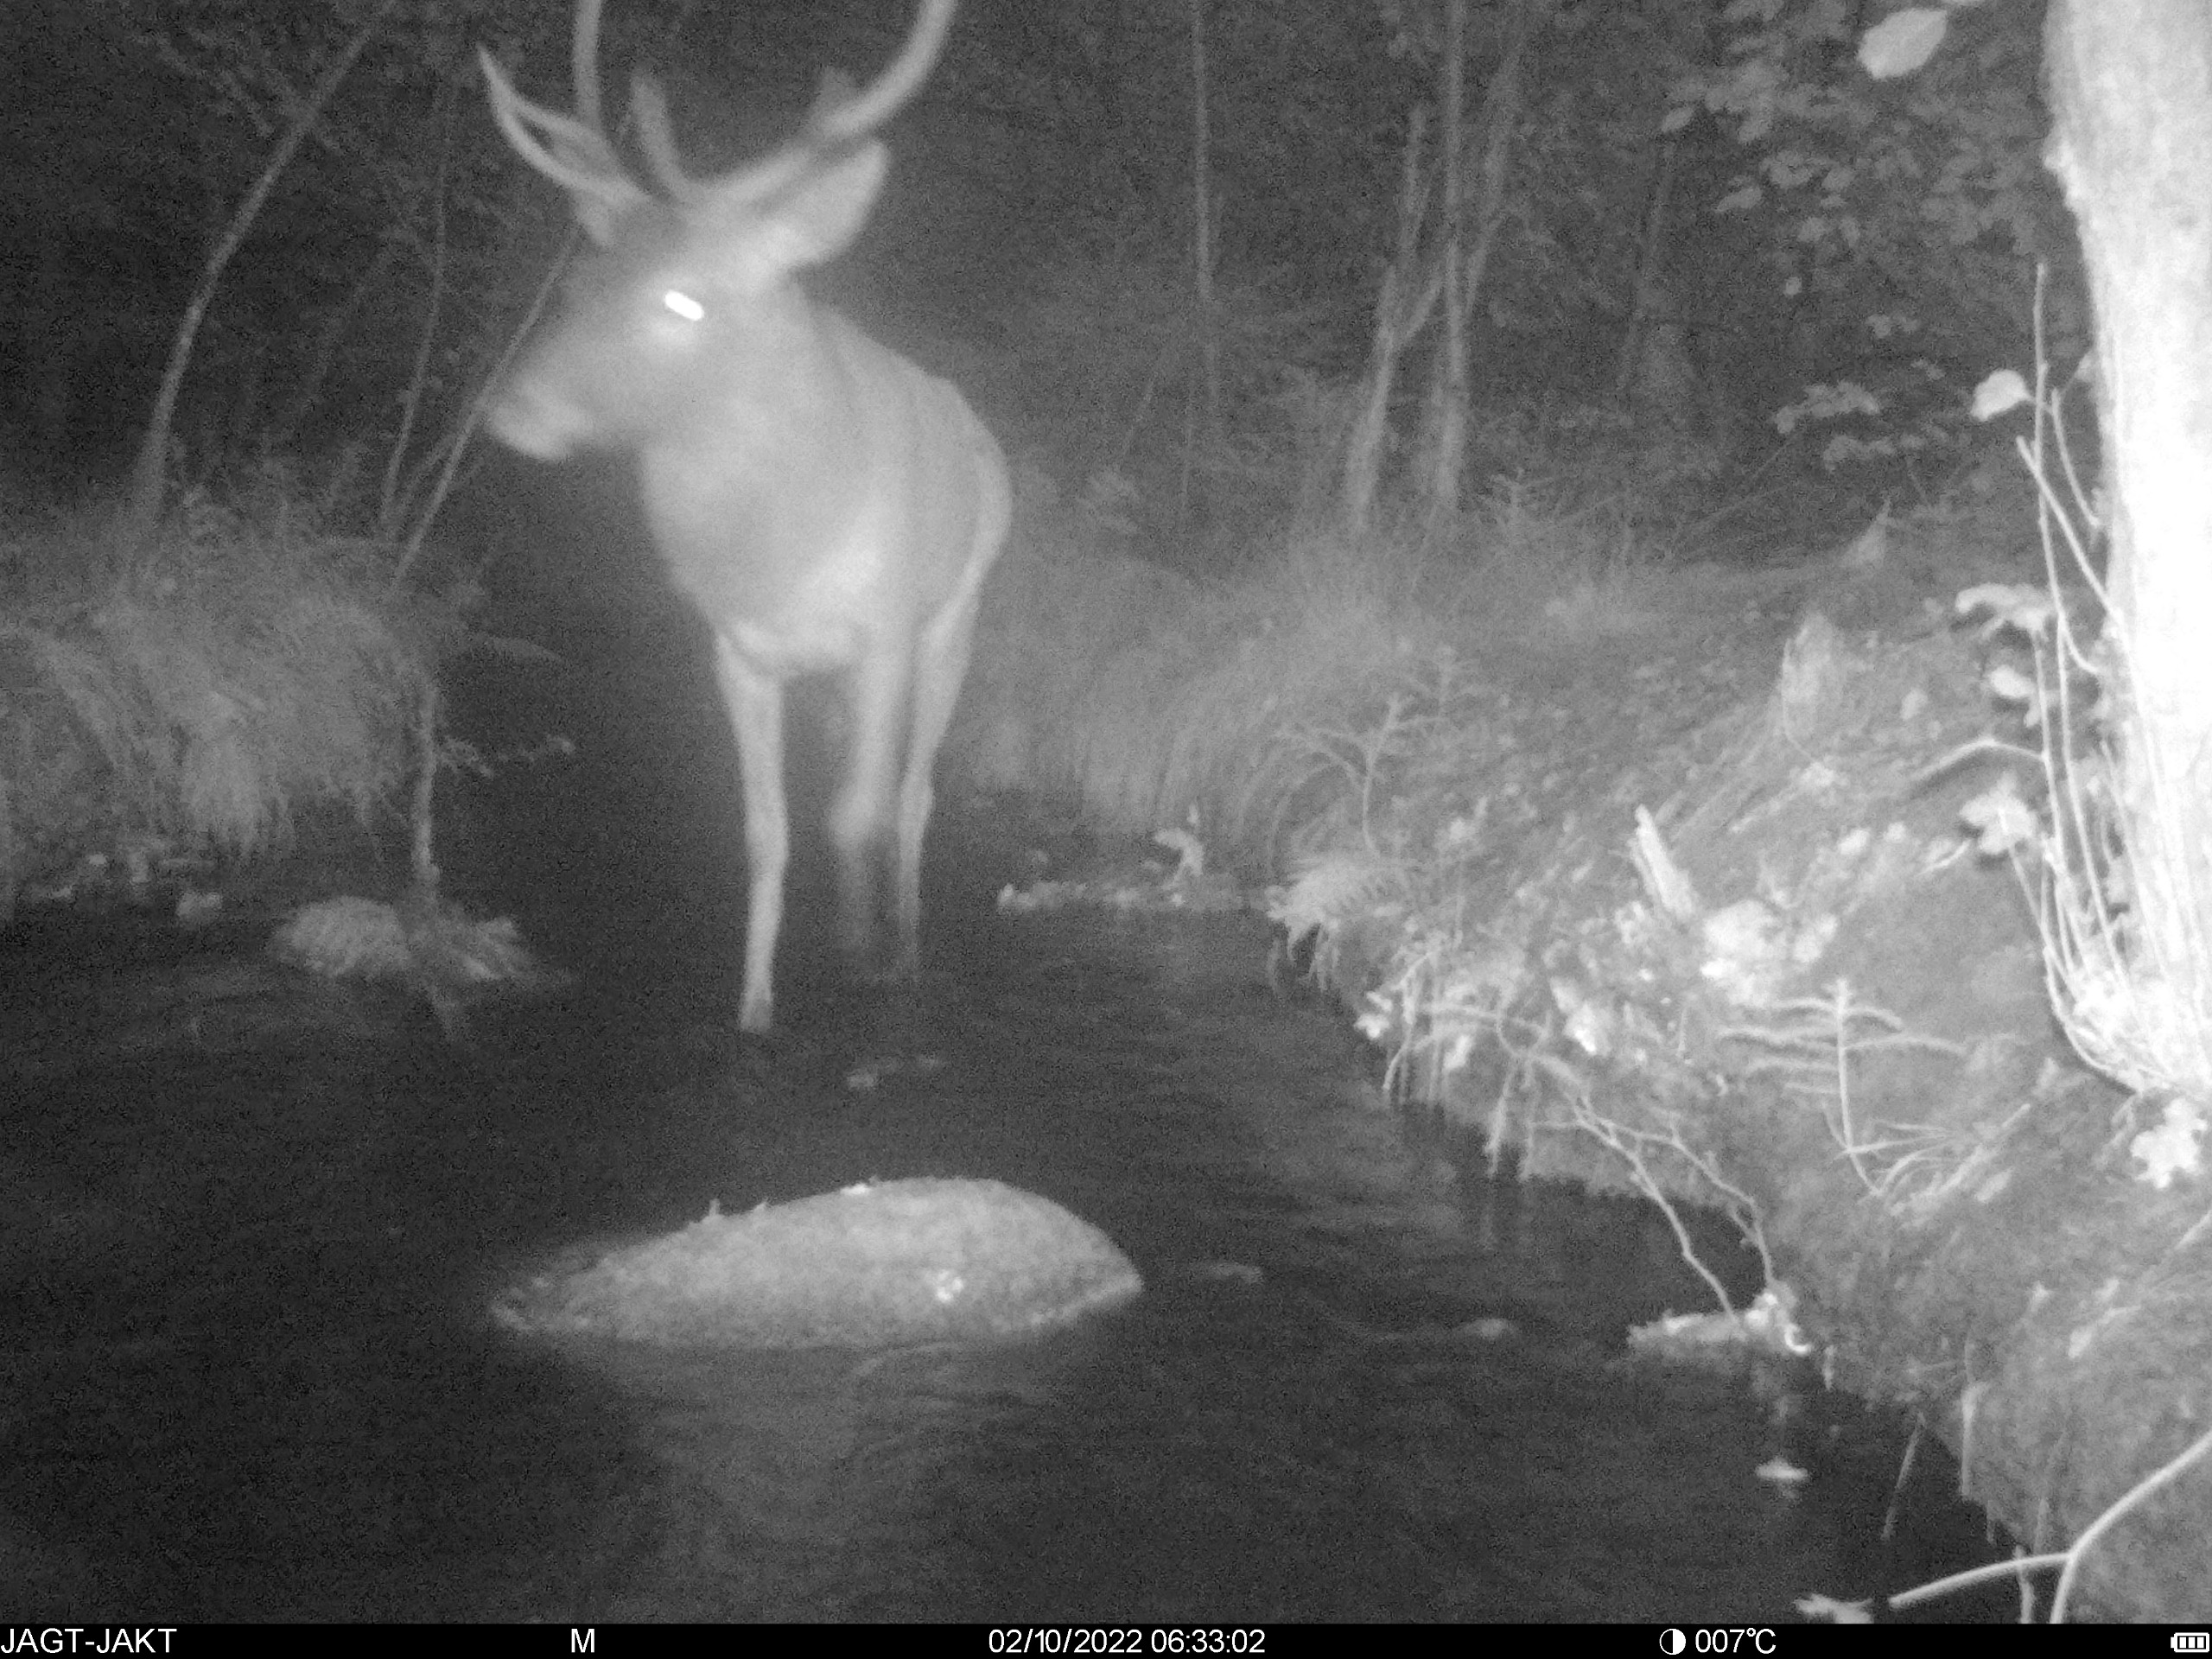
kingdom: Animalia
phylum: Chordata
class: Mammalia
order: Artiodactyla
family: Cervidae
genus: Cervus
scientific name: Cervus elaphus
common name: Krondyr
